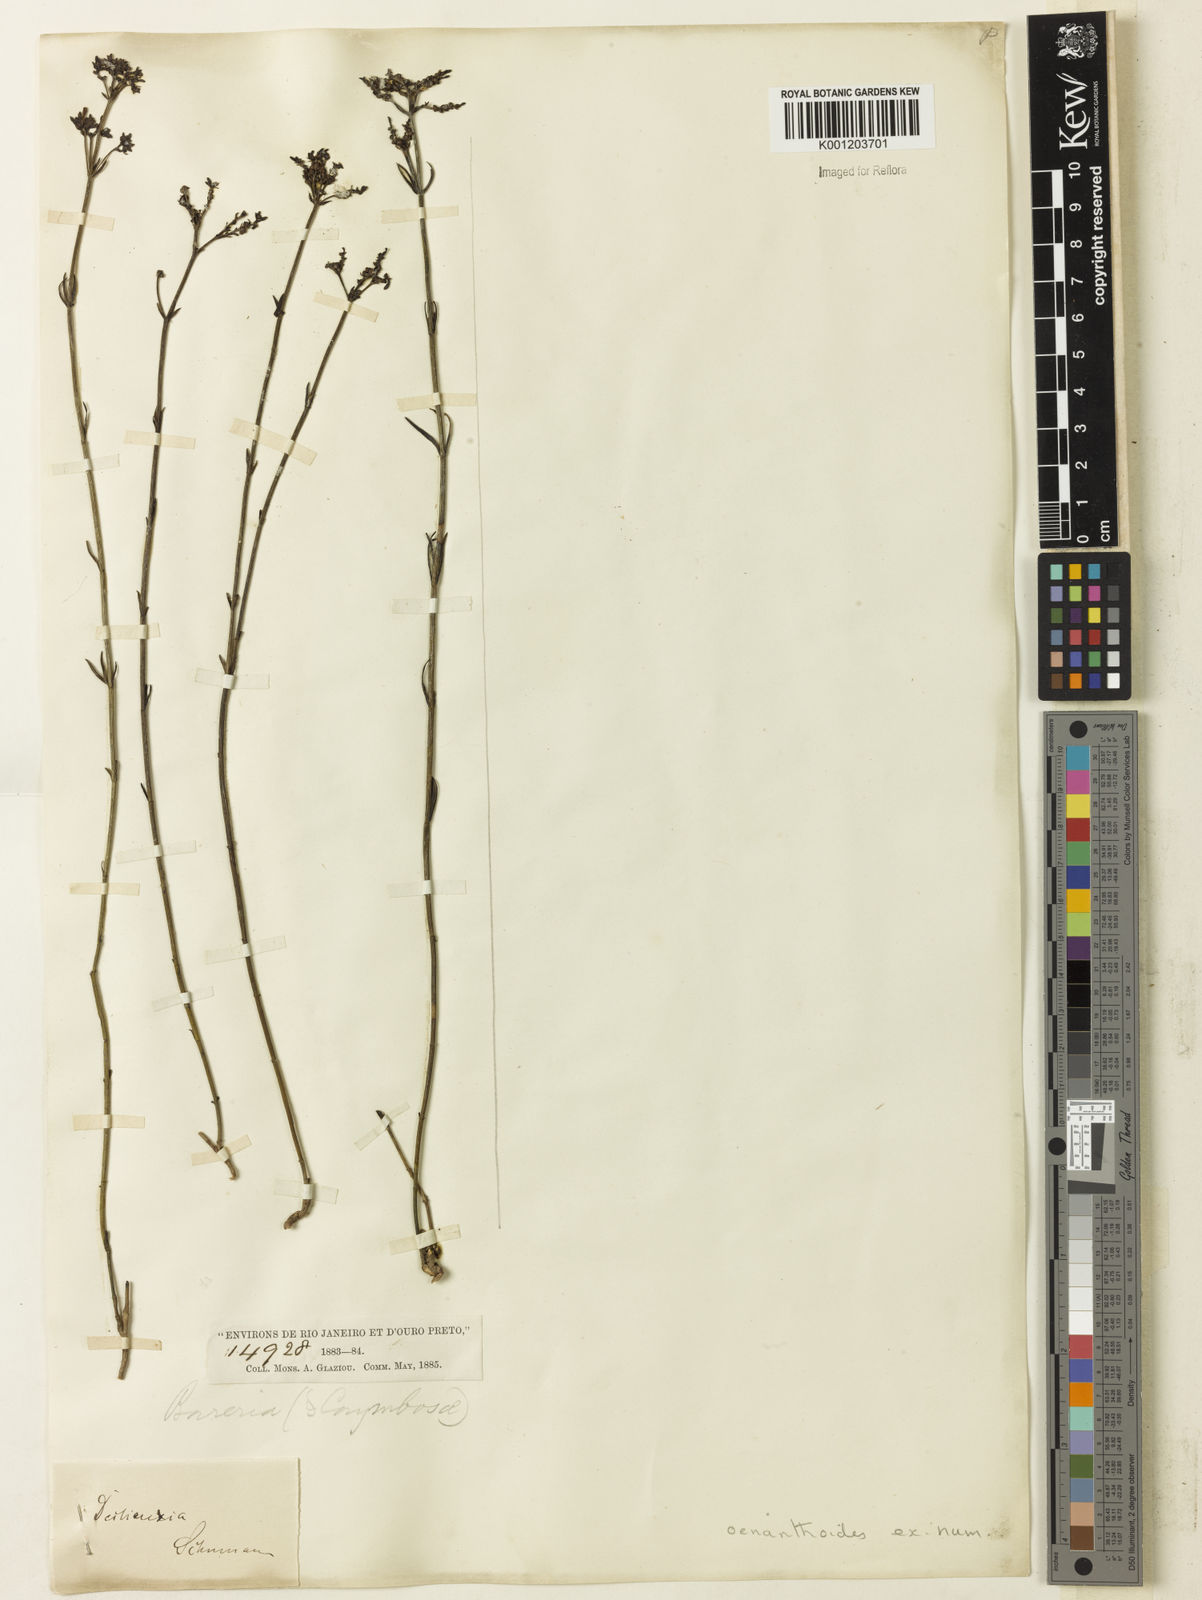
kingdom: Plantae
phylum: Tracheophyta
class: Magnoliopsida
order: Gentianales
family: Rubiaceae
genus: Declieuxia
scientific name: Declieuxia
